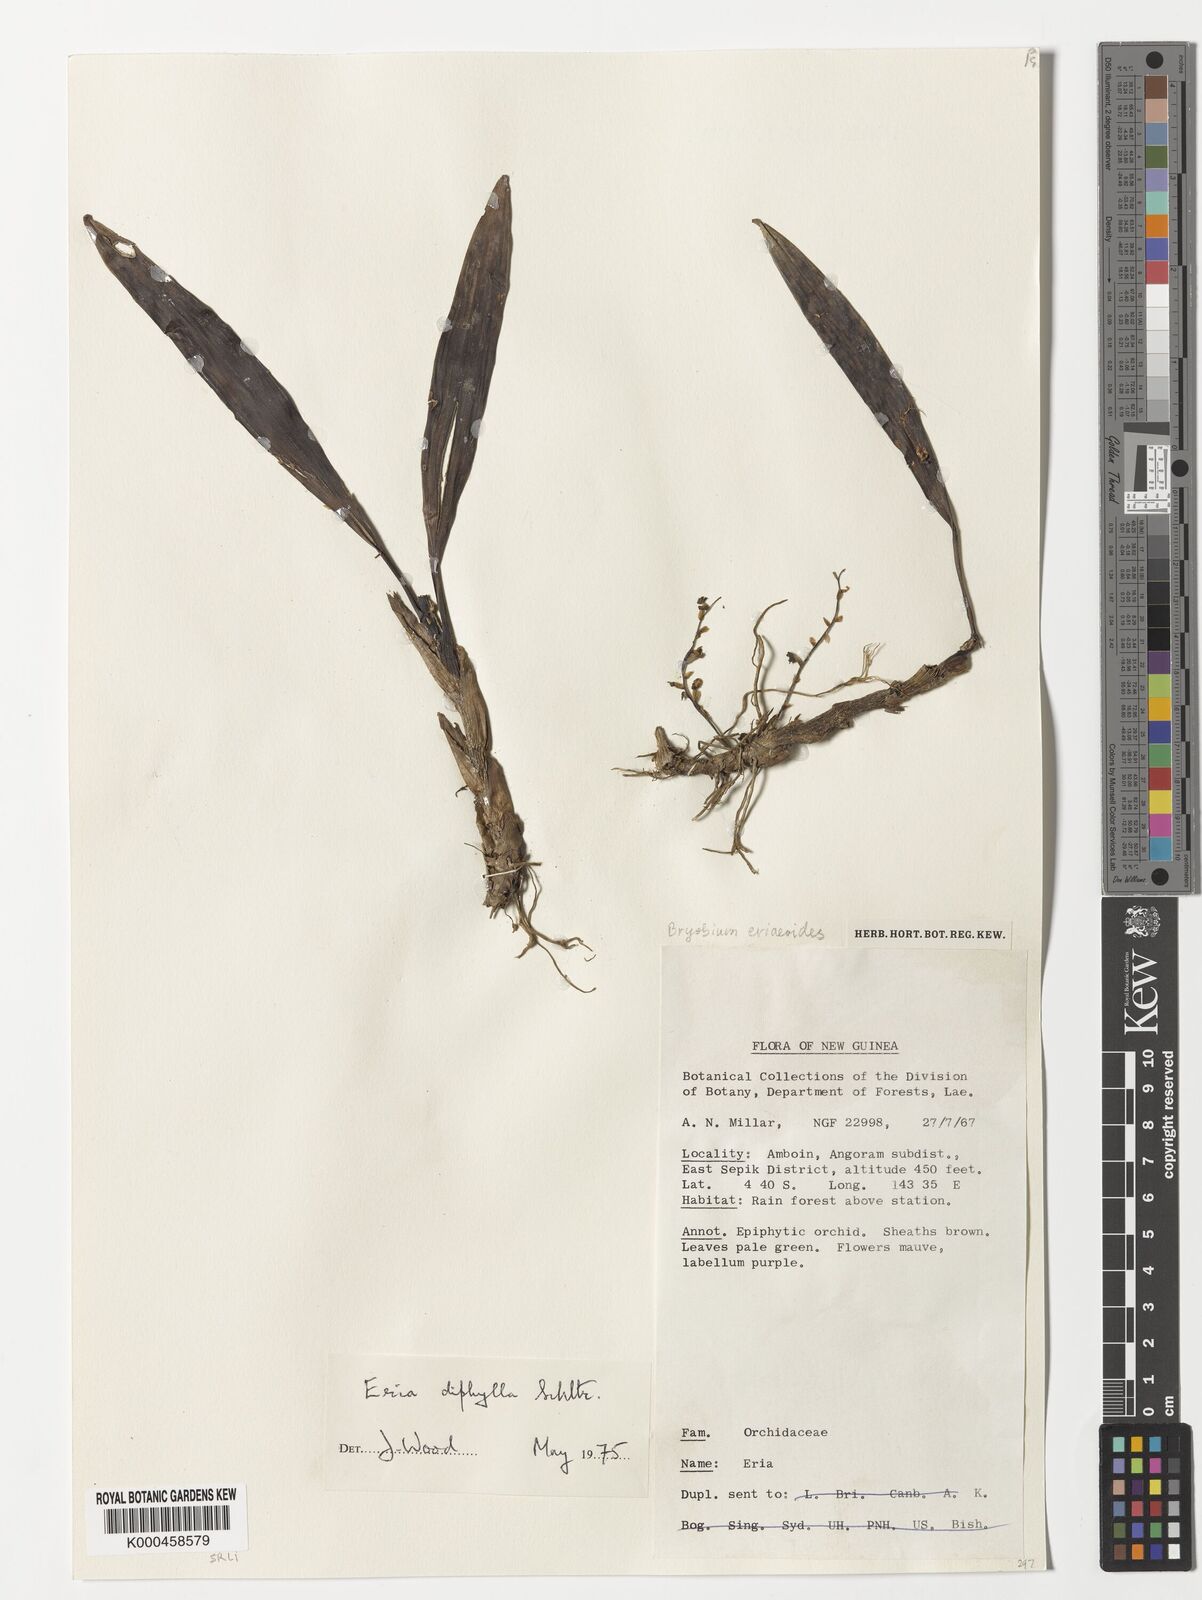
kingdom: Plantae
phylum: Tracheophyta
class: Liliopsida
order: Asparagales
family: Orchidaceae
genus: Bryobium
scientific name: Bryobium eriaeoides
